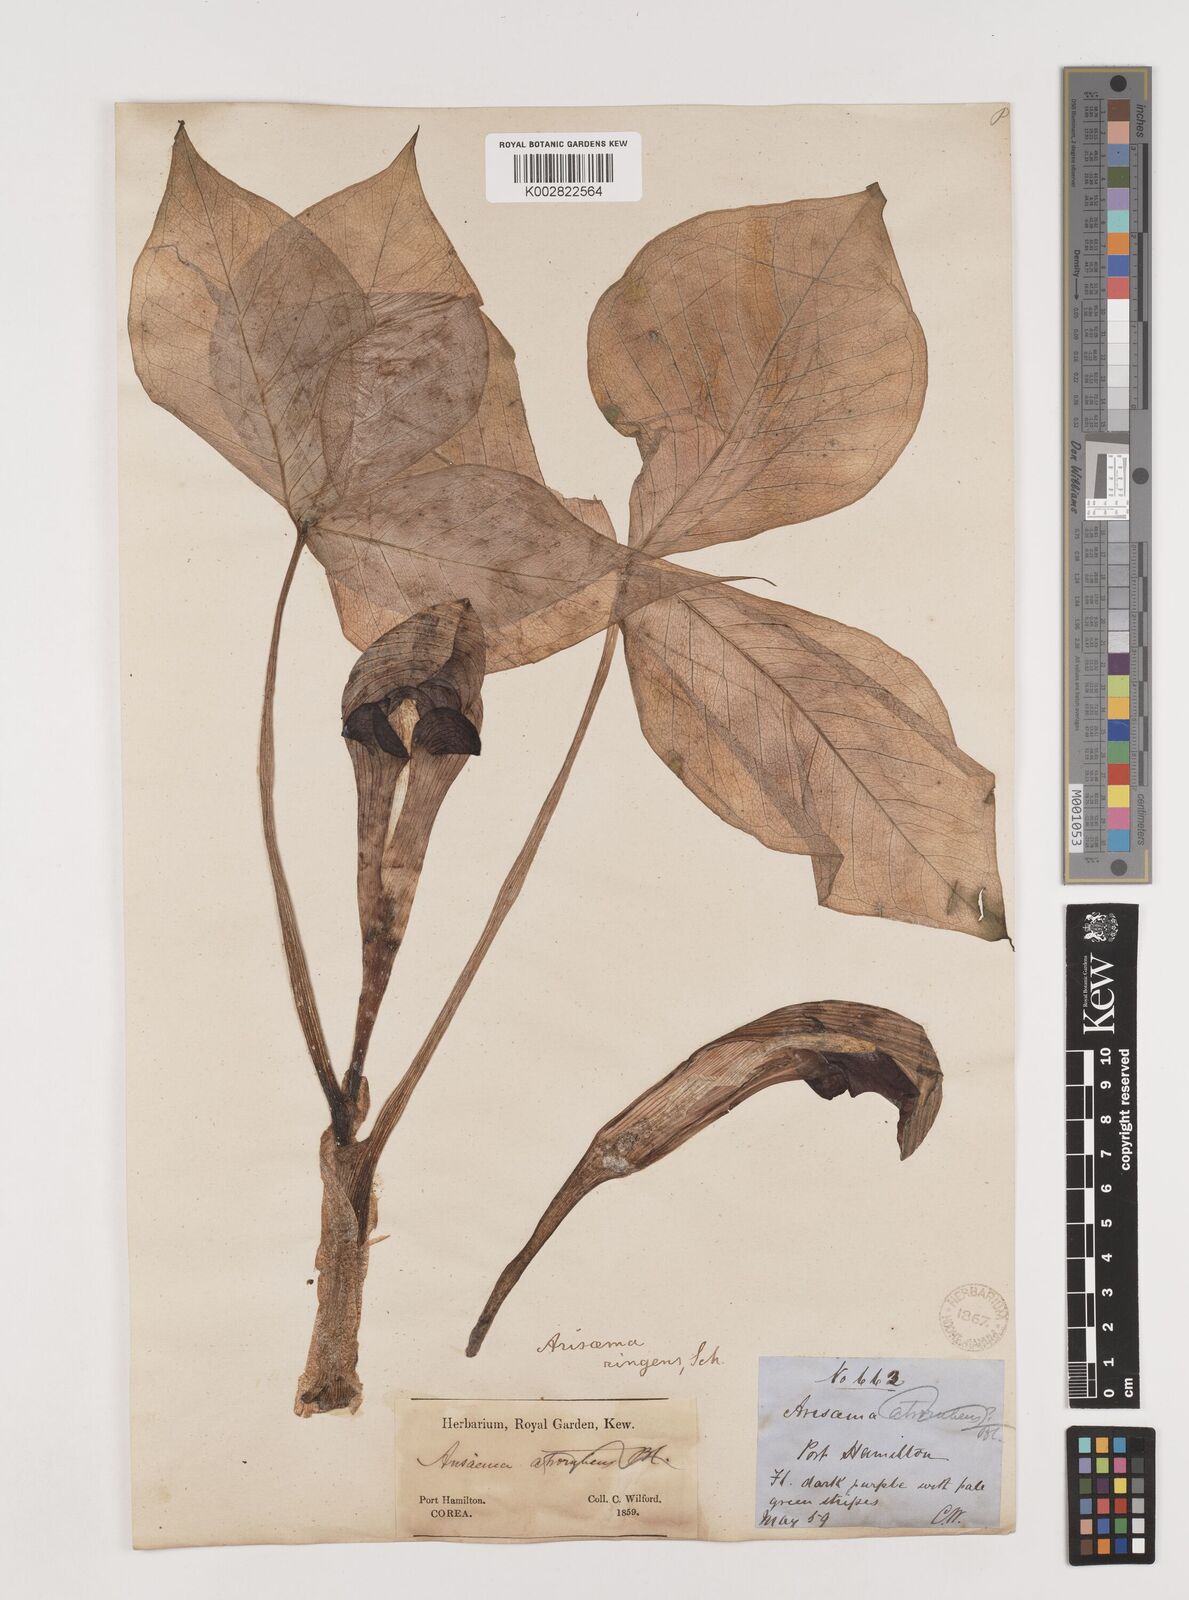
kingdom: Plantae
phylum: Tracheophyta
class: Liliopsida
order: Alismatales
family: Araceae
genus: Arisaema
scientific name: Arisaema ringens
